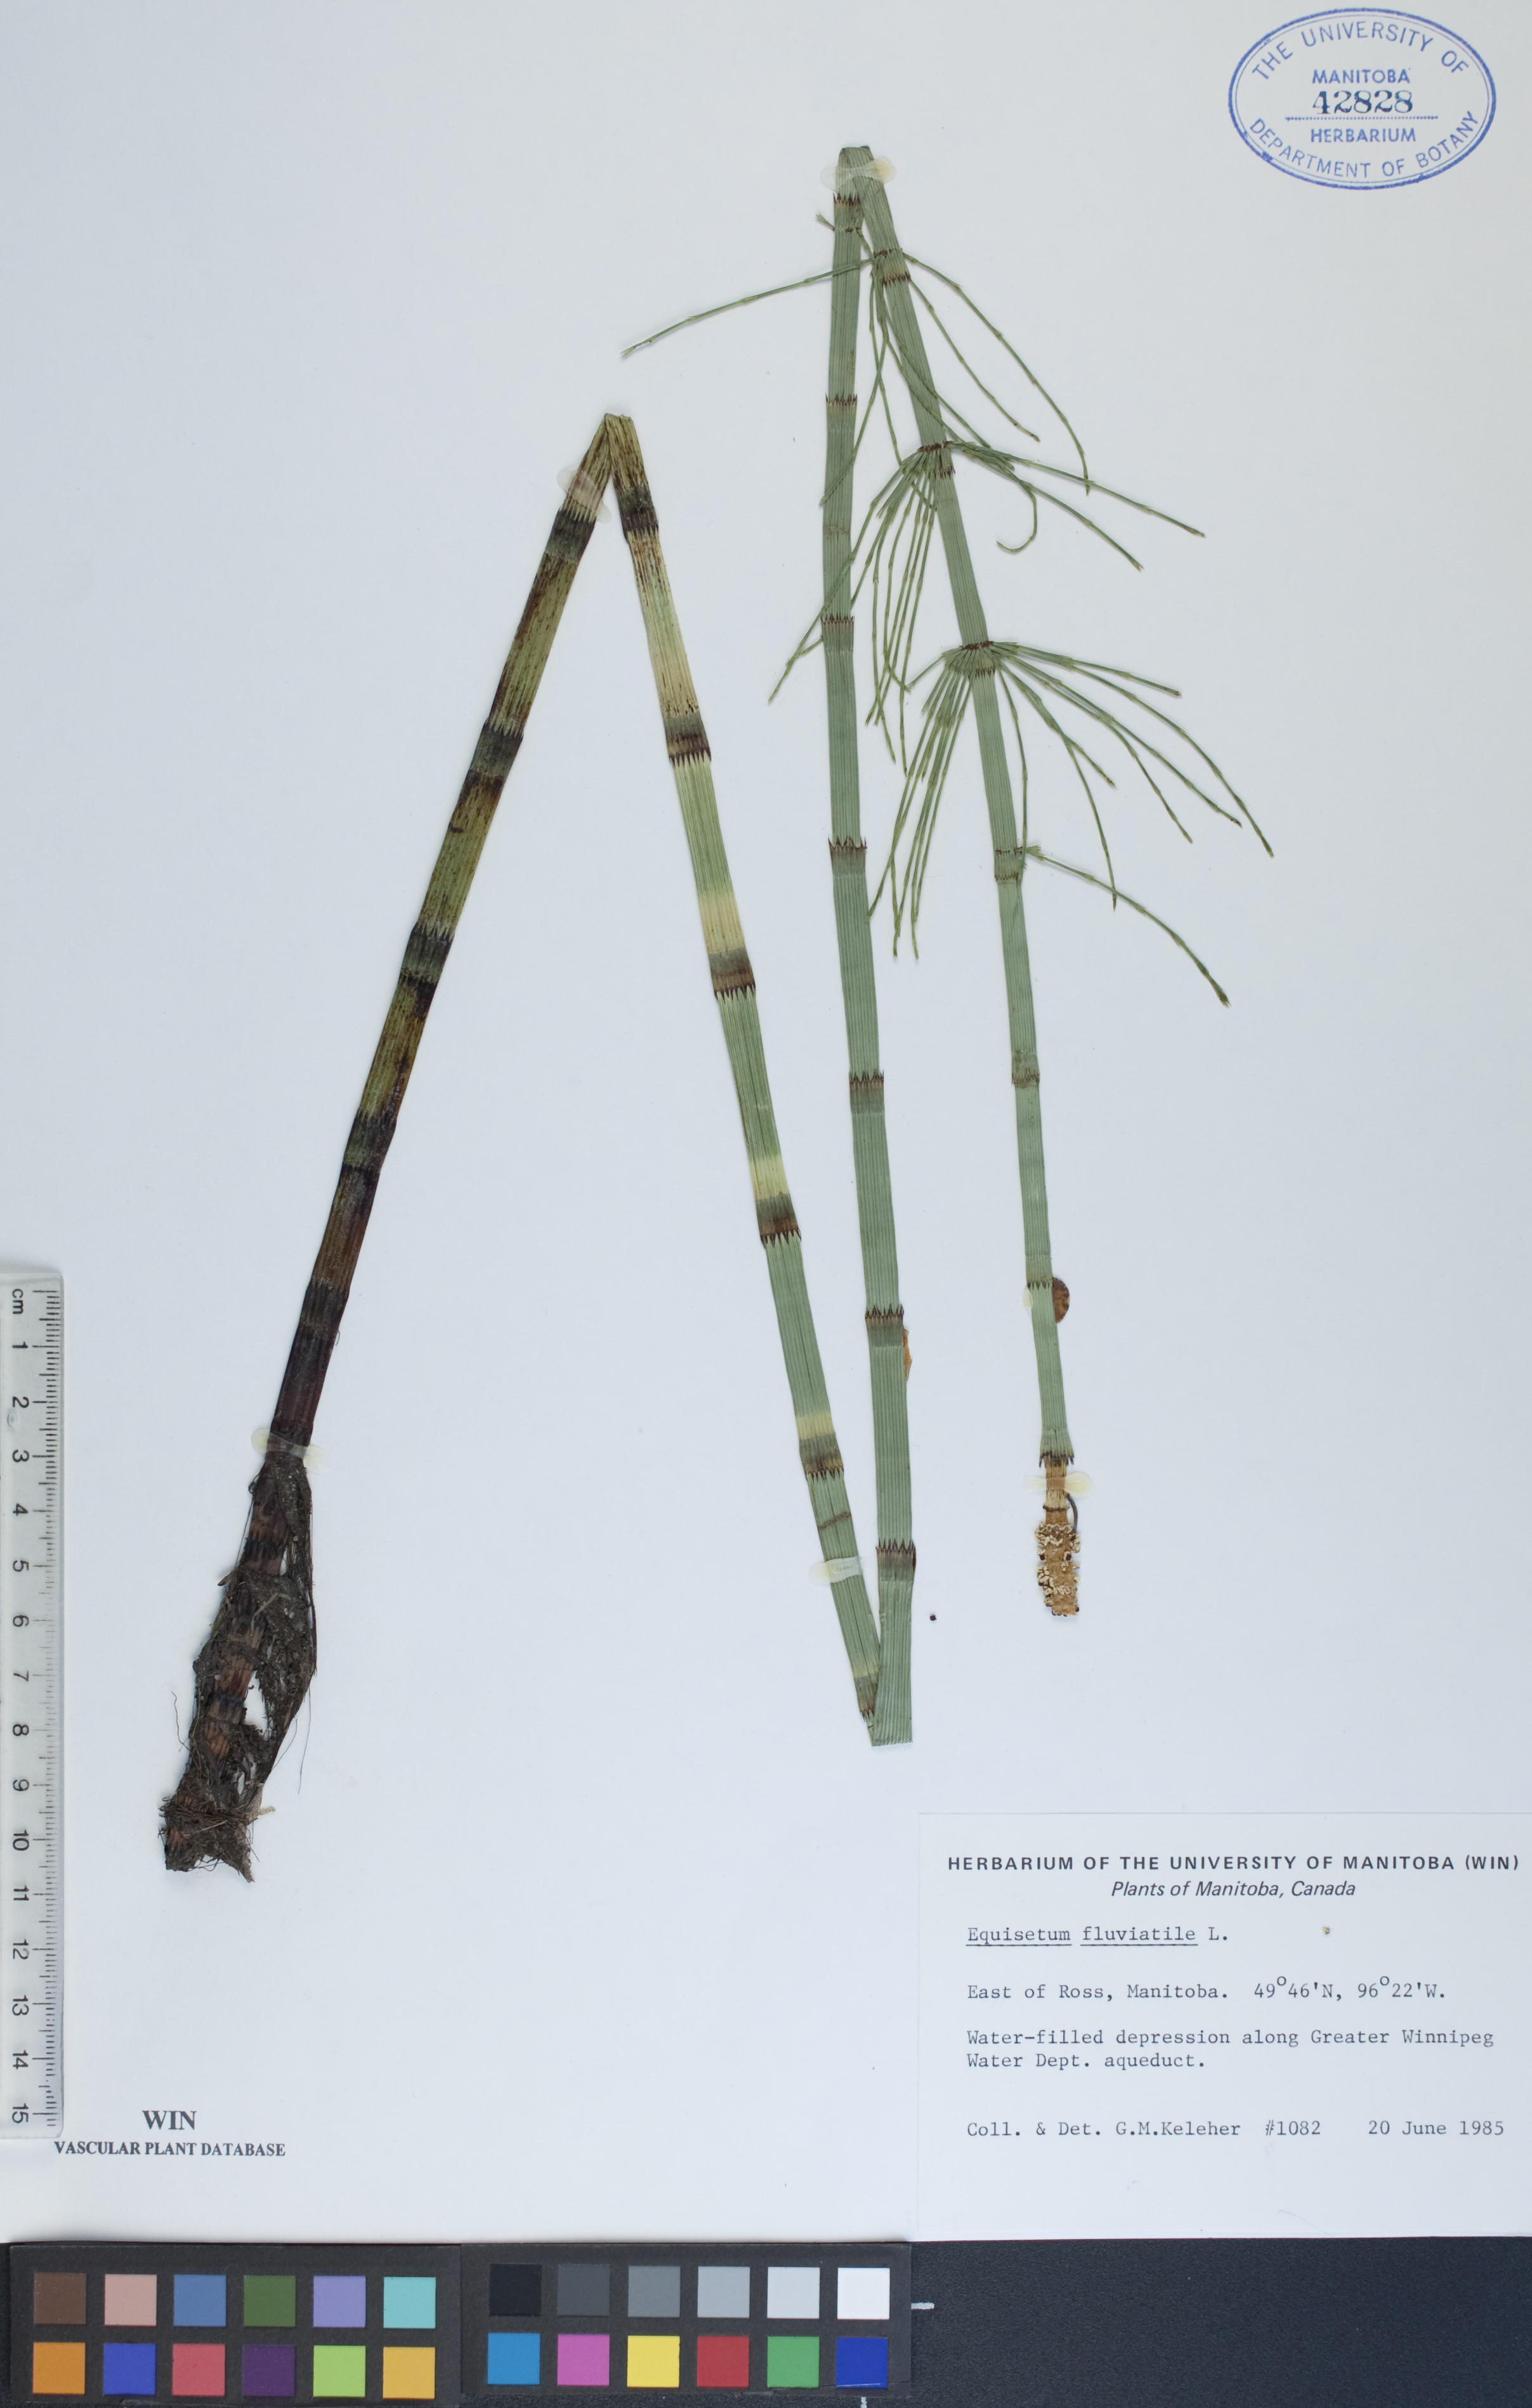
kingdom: Plantae
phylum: Tracheophyta
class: Polypodiopsida
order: Equisetales
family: Equisetaceae
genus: Equisetum
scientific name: Equisetum fluviatile
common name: Water horsetail
